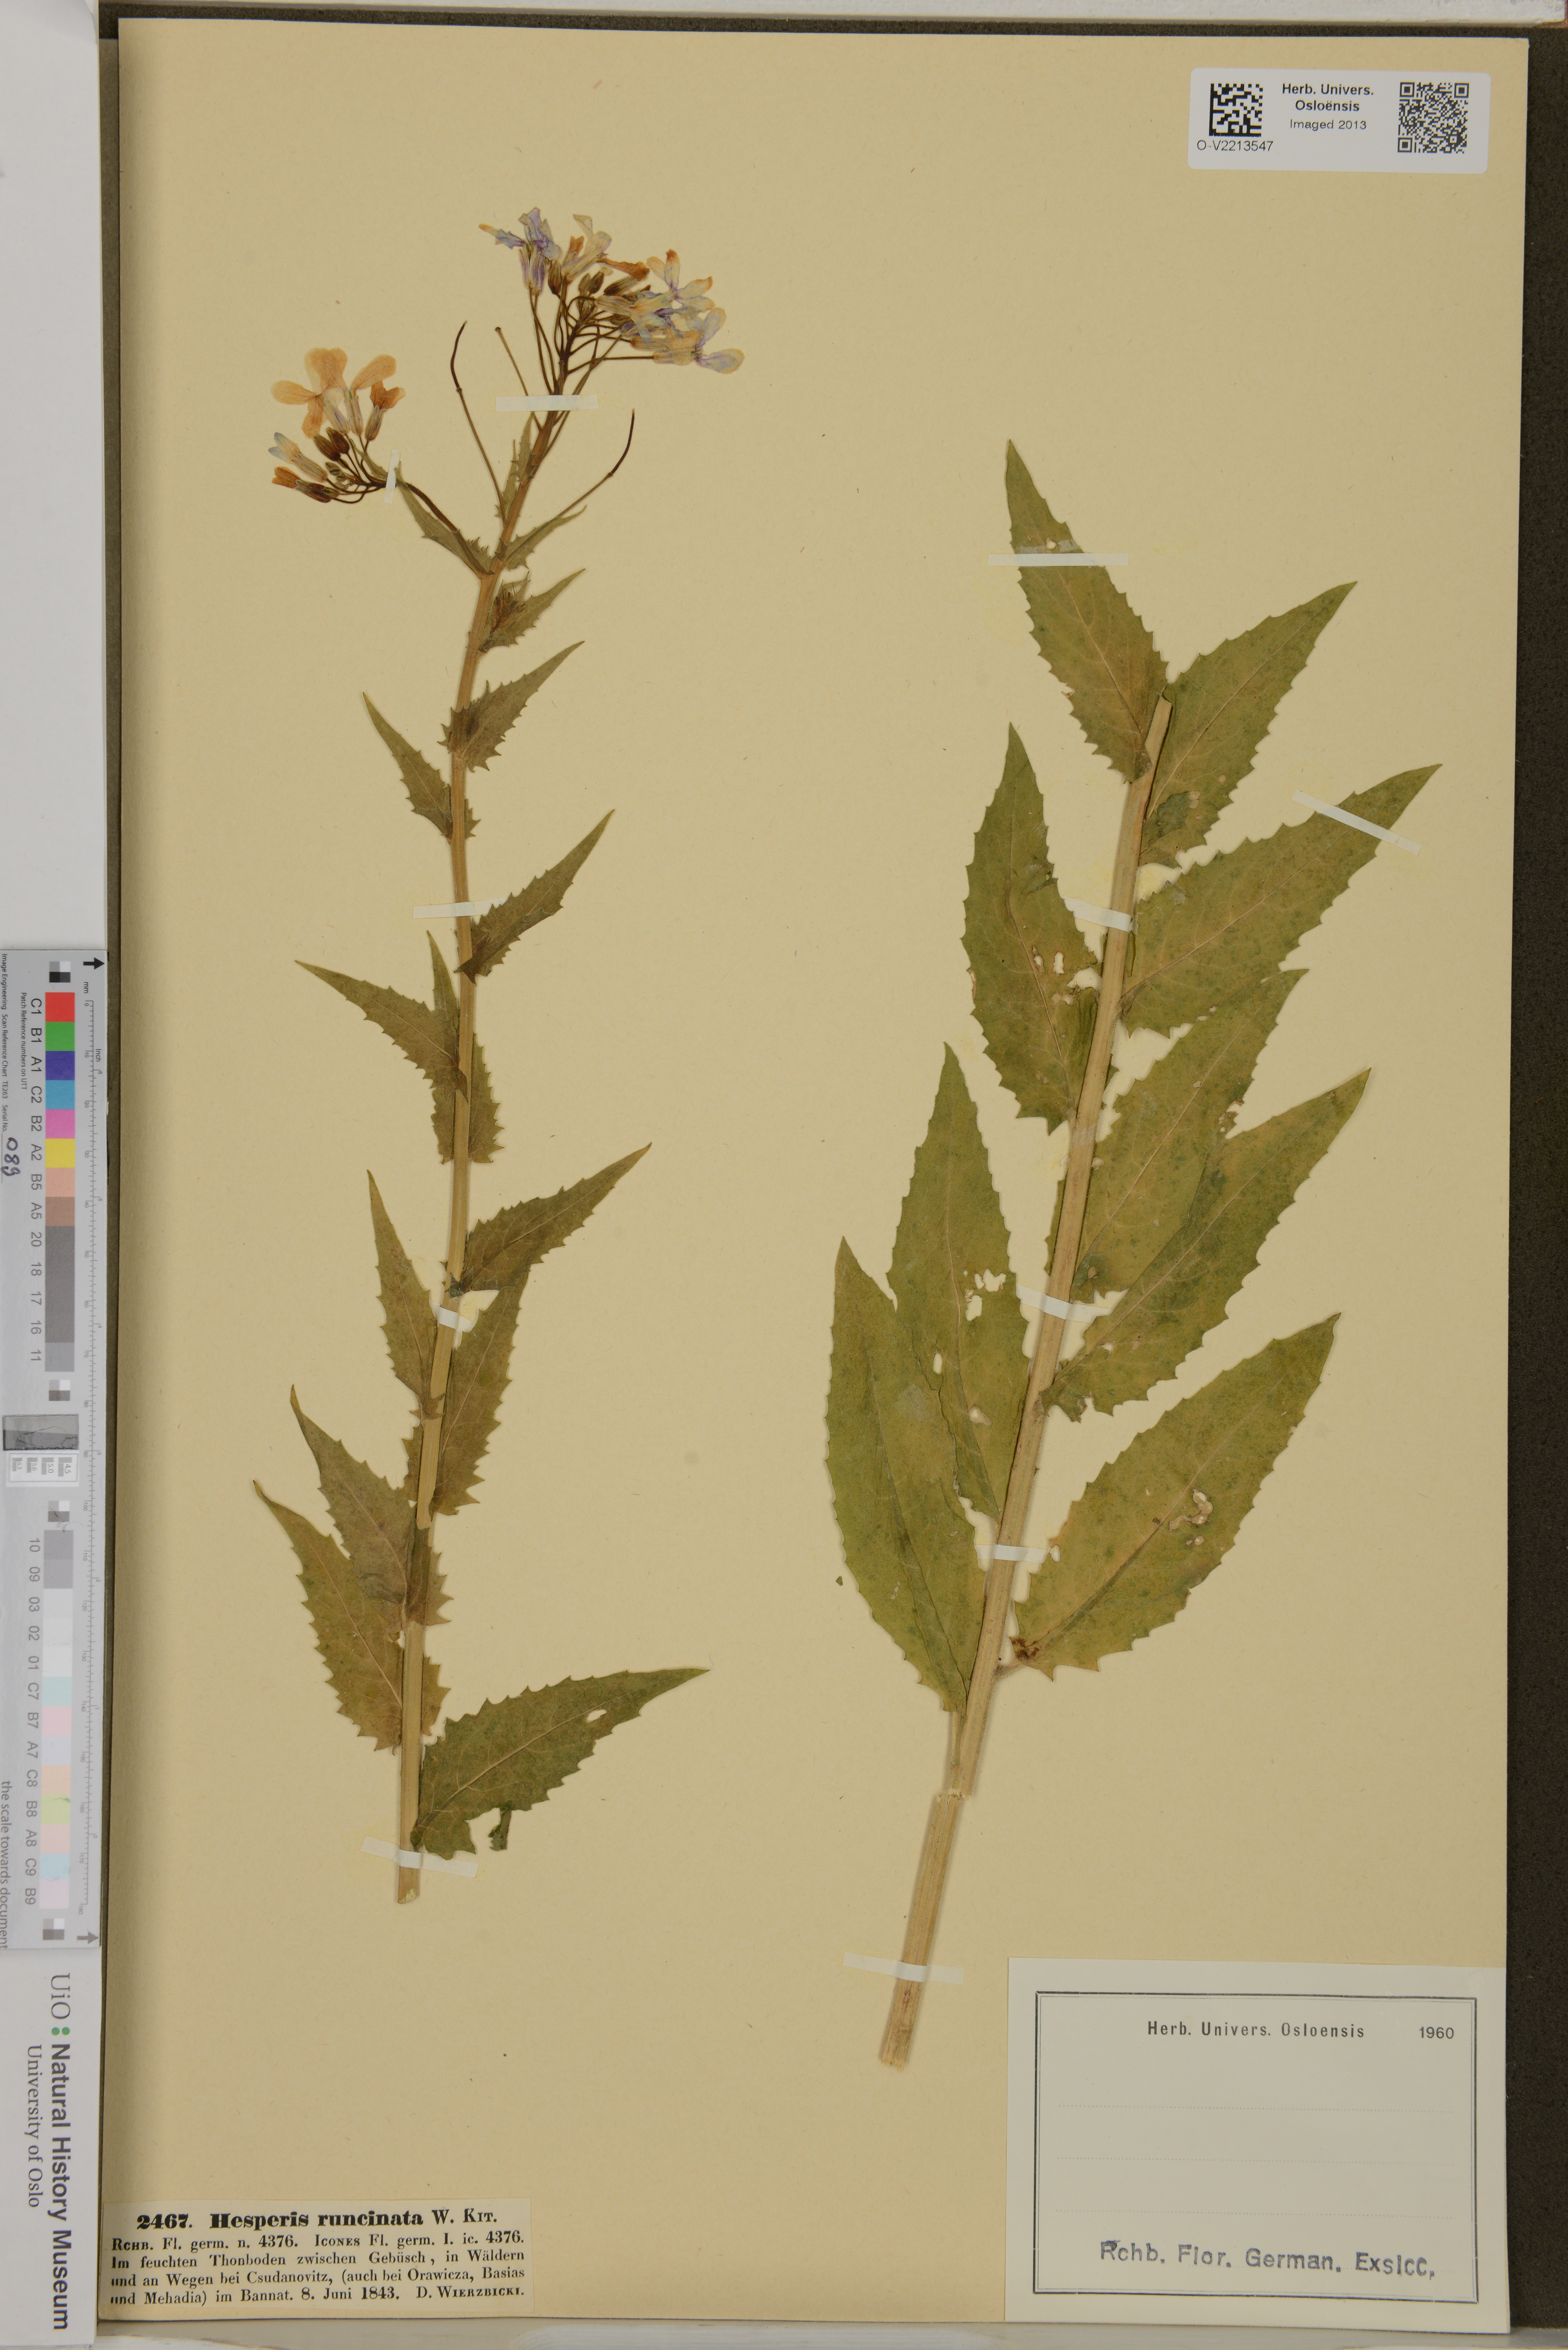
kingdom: Plantae
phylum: Tracheophyta
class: Magnoliopsida
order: Brassicales
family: Brassicaceae
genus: Hesperis
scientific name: Hesperis sylvestris
